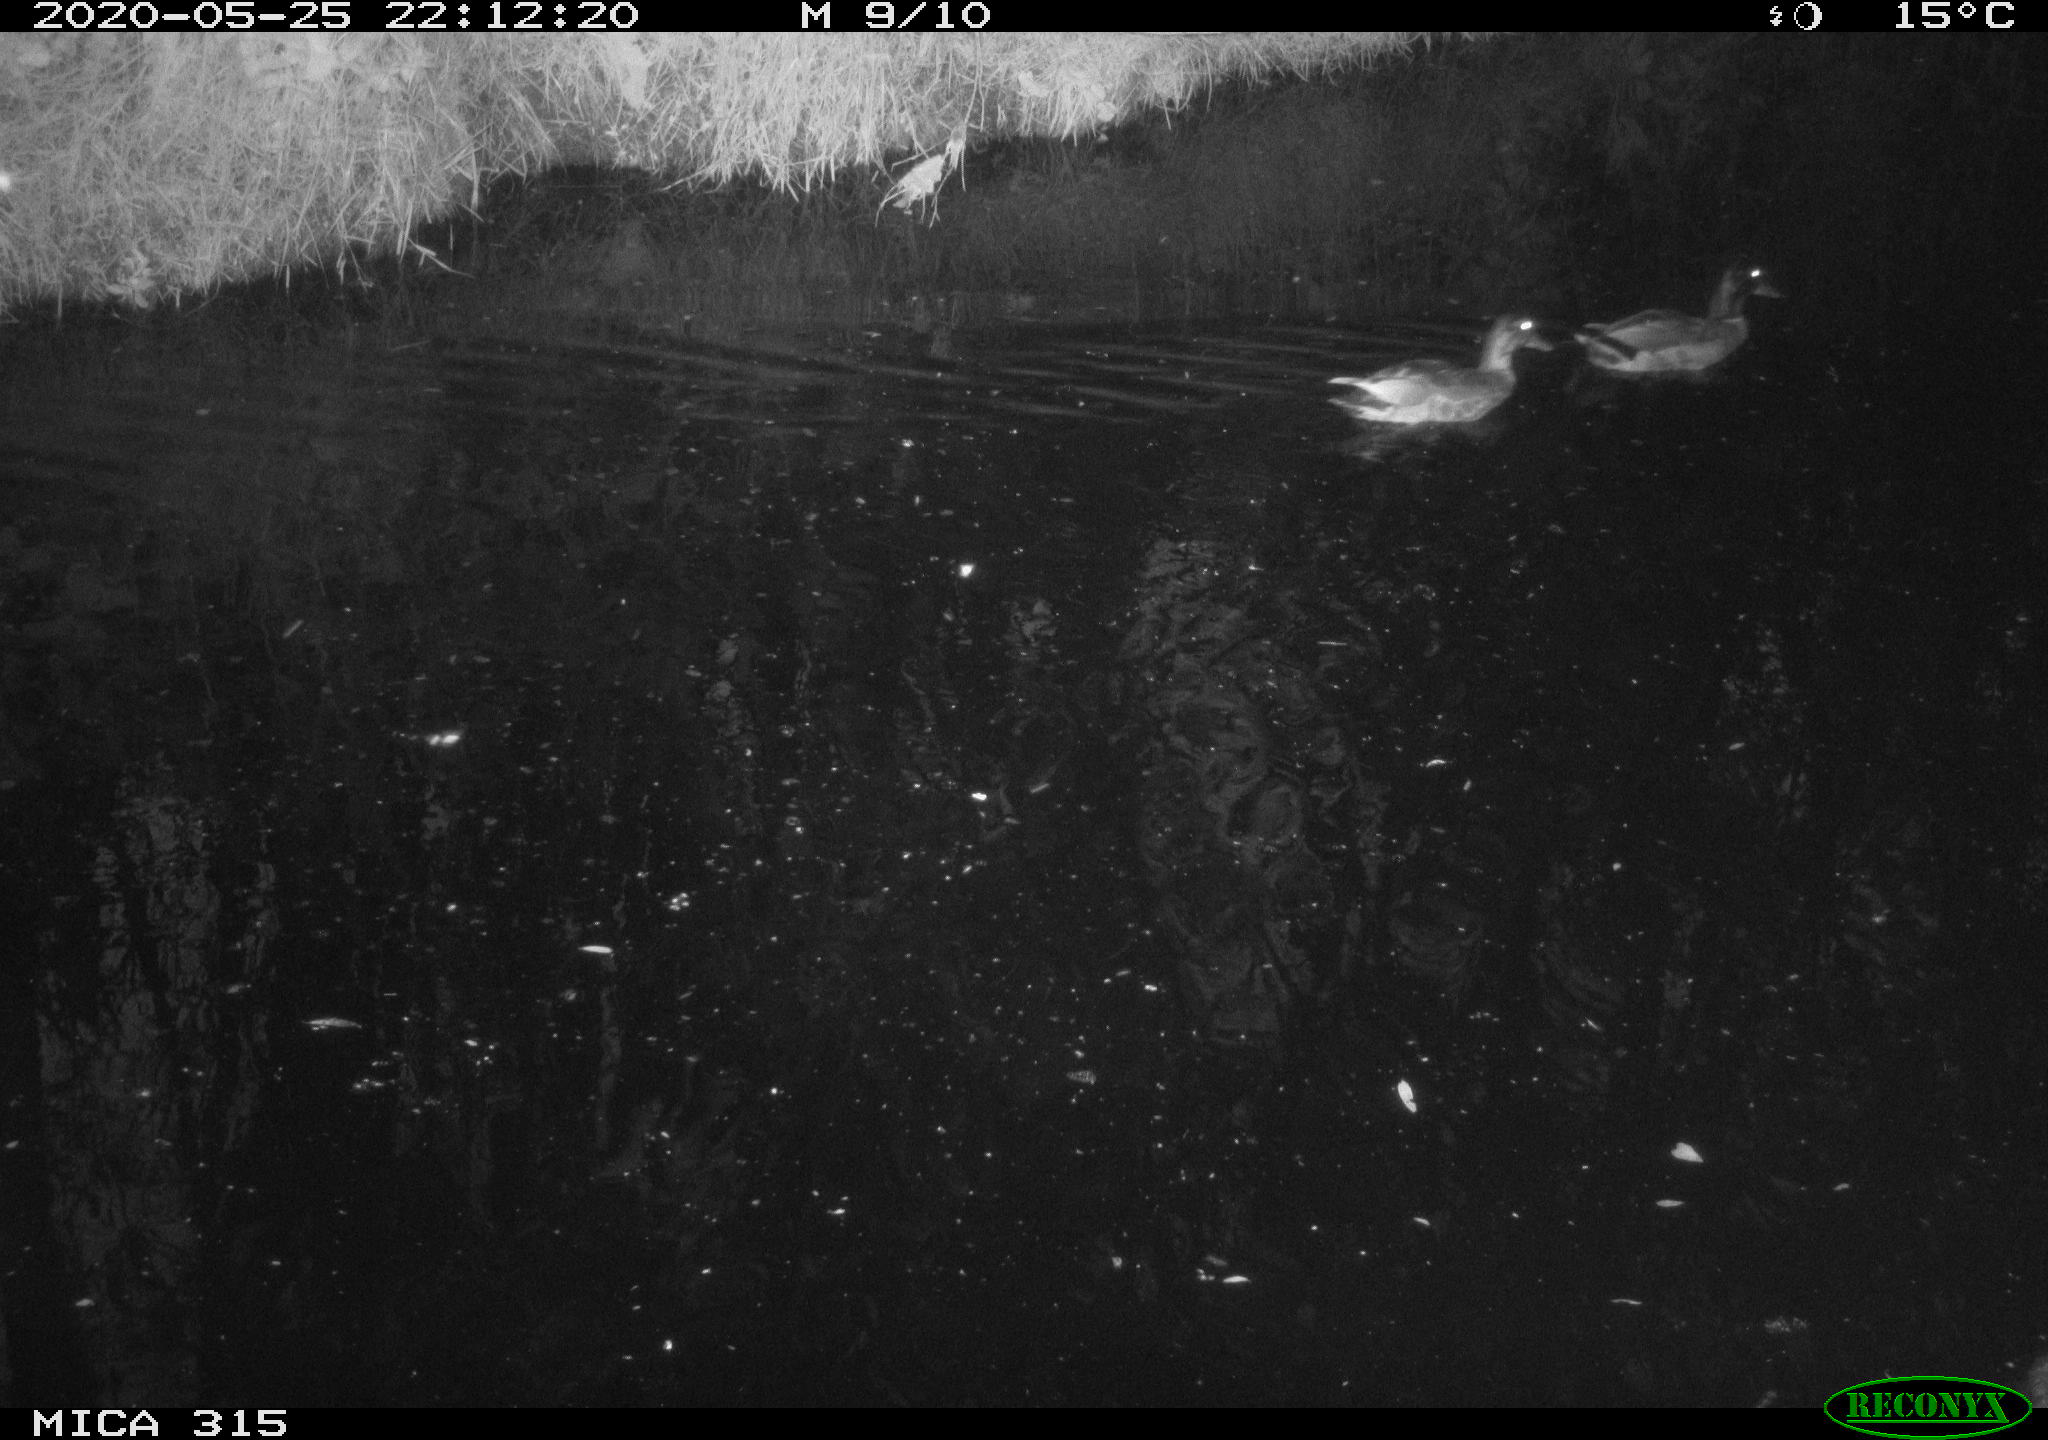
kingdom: Animalia
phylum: Chordata
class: Aves
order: Anseriformes
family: Anatidae
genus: Anas
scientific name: Anas platyrhynchos
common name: Mallard
